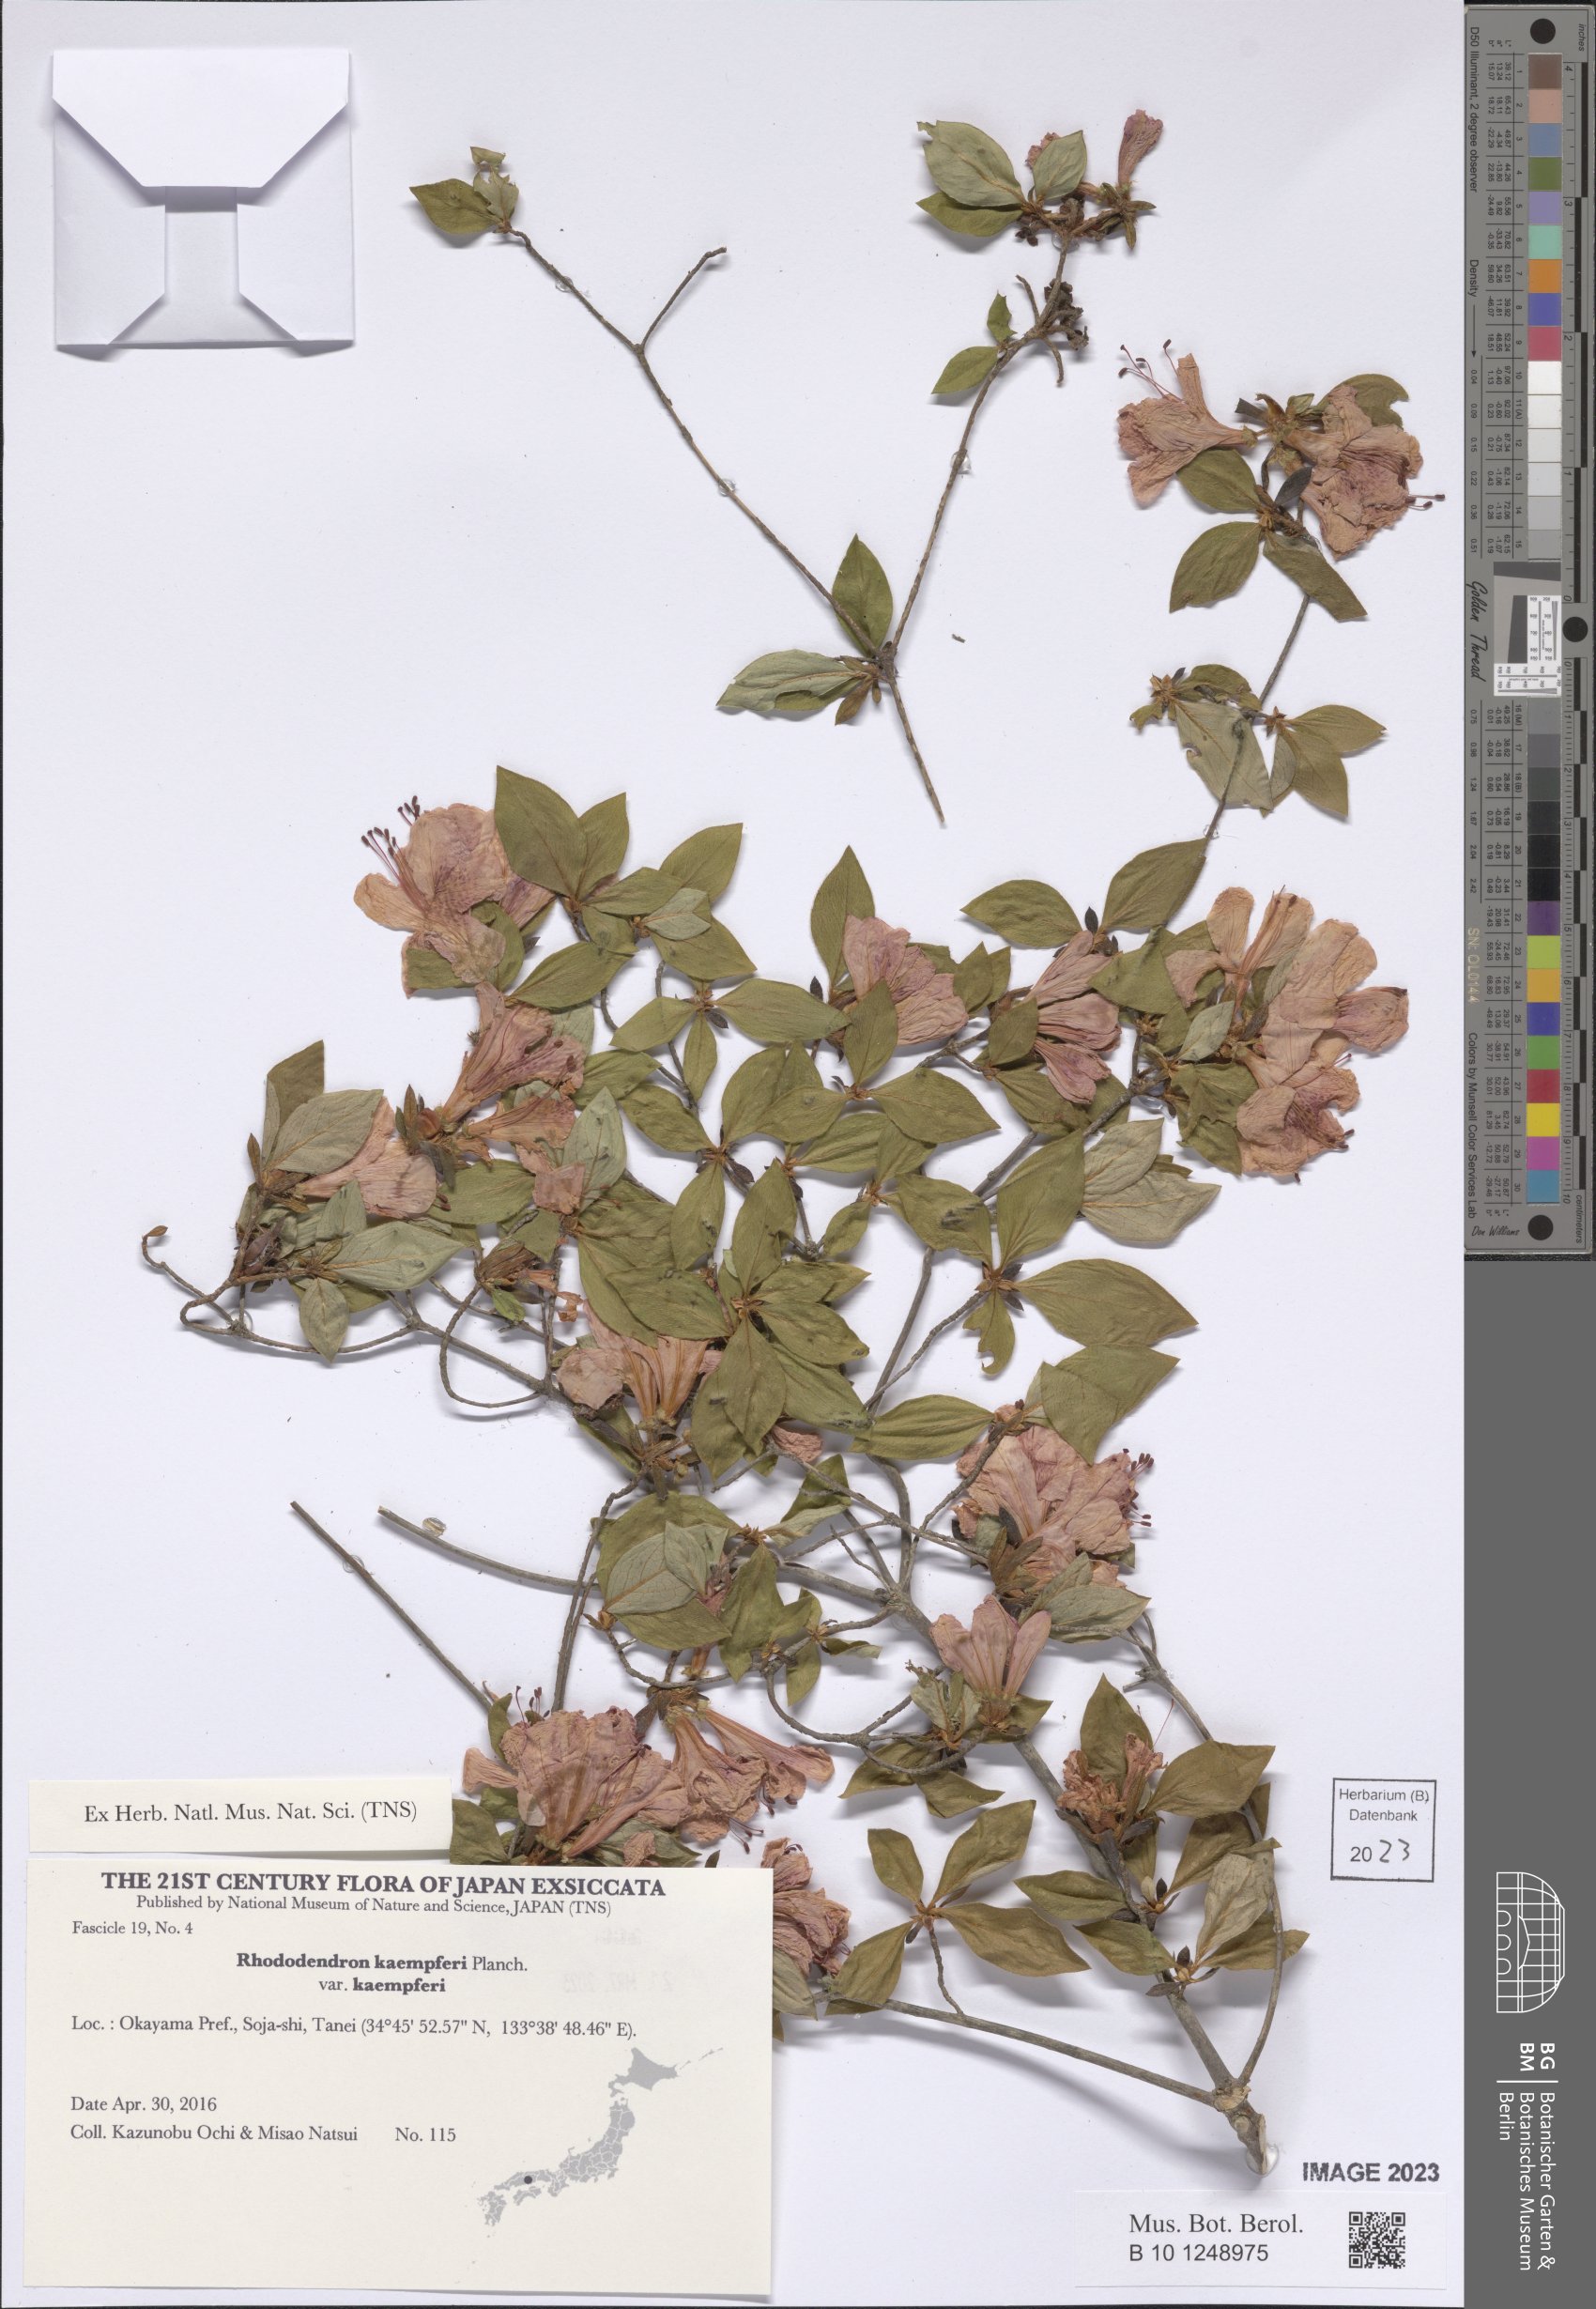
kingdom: Plantae
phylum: Tracheophyta
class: Magnoliopsida
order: Ericales
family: Ericaceae
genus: Rhododendron
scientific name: Rhododendron kaempferi
